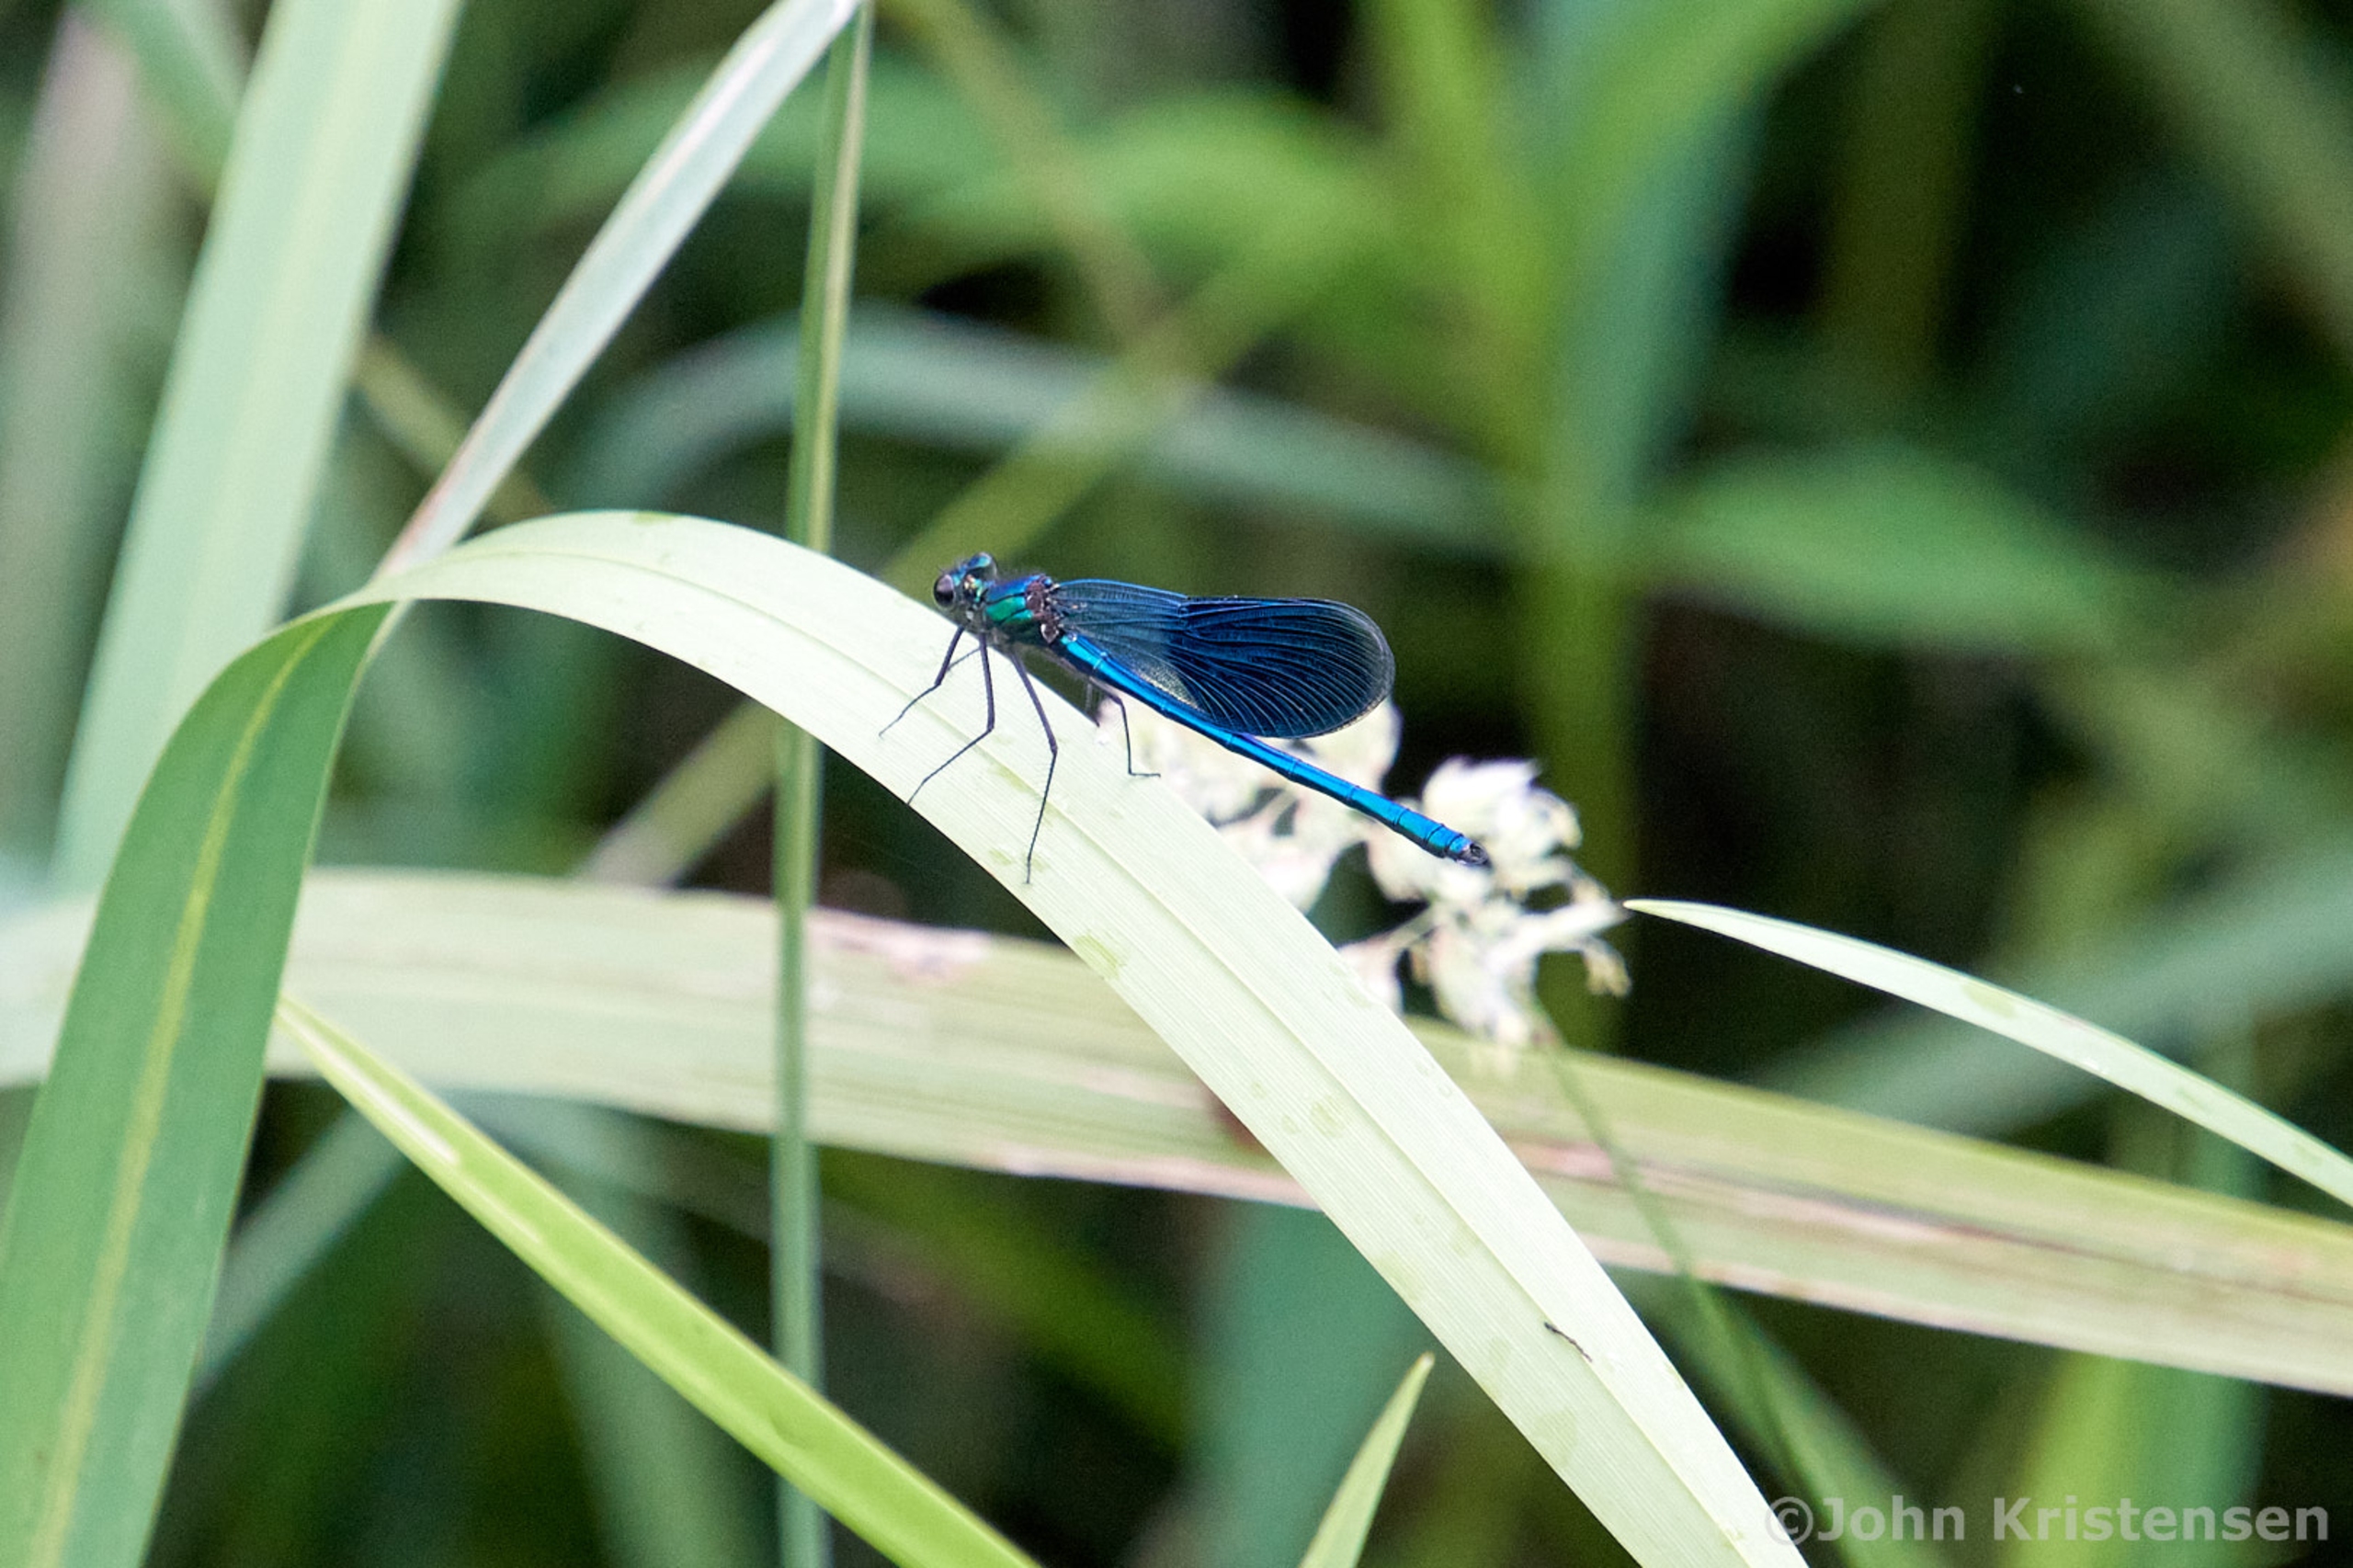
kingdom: Animalia
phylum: Arthropoda
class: Insecta
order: Odonata
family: Calopterygidae
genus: Calopteryx
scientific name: Calopteryx splendens
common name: Blåbåndet pragtvandnymfe
